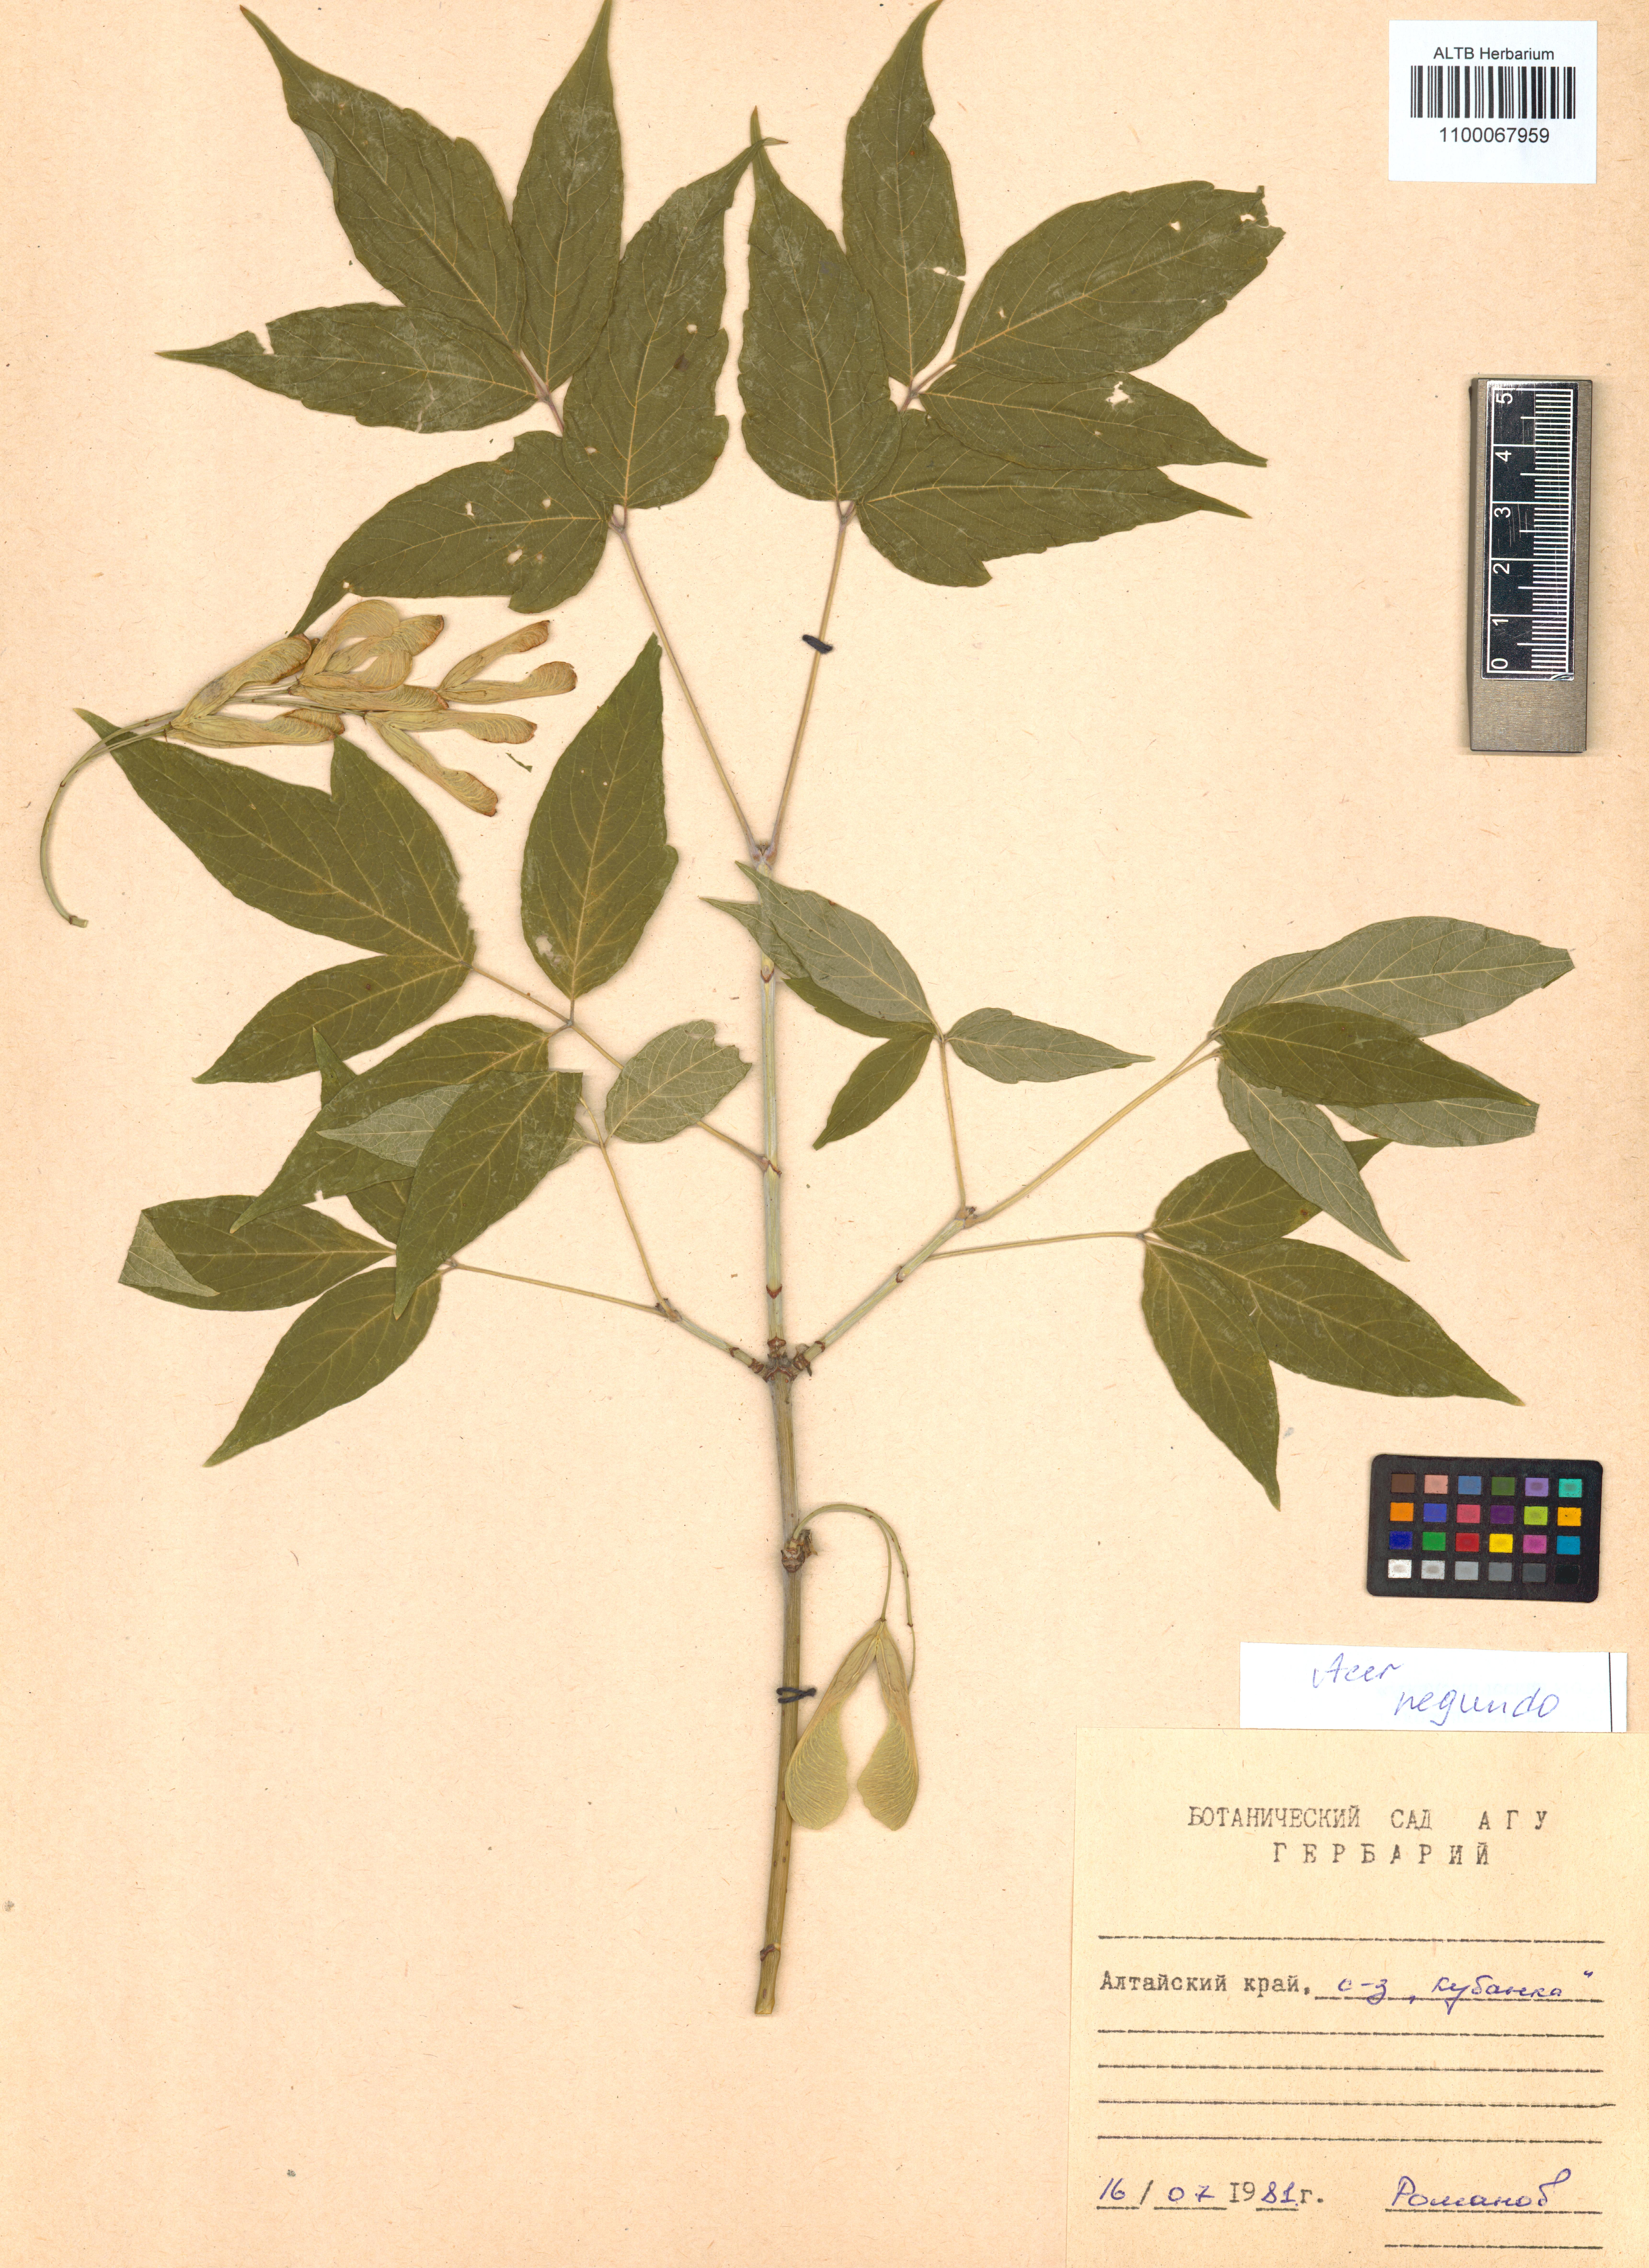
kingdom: Plantae
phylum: Tracheophyta
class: Magnoliopsida
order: Sapindales
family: Sapindaceae
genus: Acer
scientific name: Acer negundo
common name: Ashleaf maple
